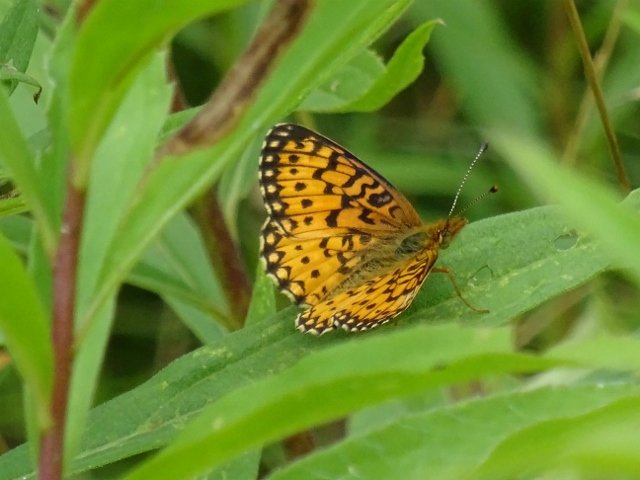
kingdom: Animalia
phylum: Arthropoda
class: Insecta
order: Lepidoptera
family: Nymphalidae
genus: Boloria
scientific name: Boloria selene
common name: Silver-bordered Fritillary
